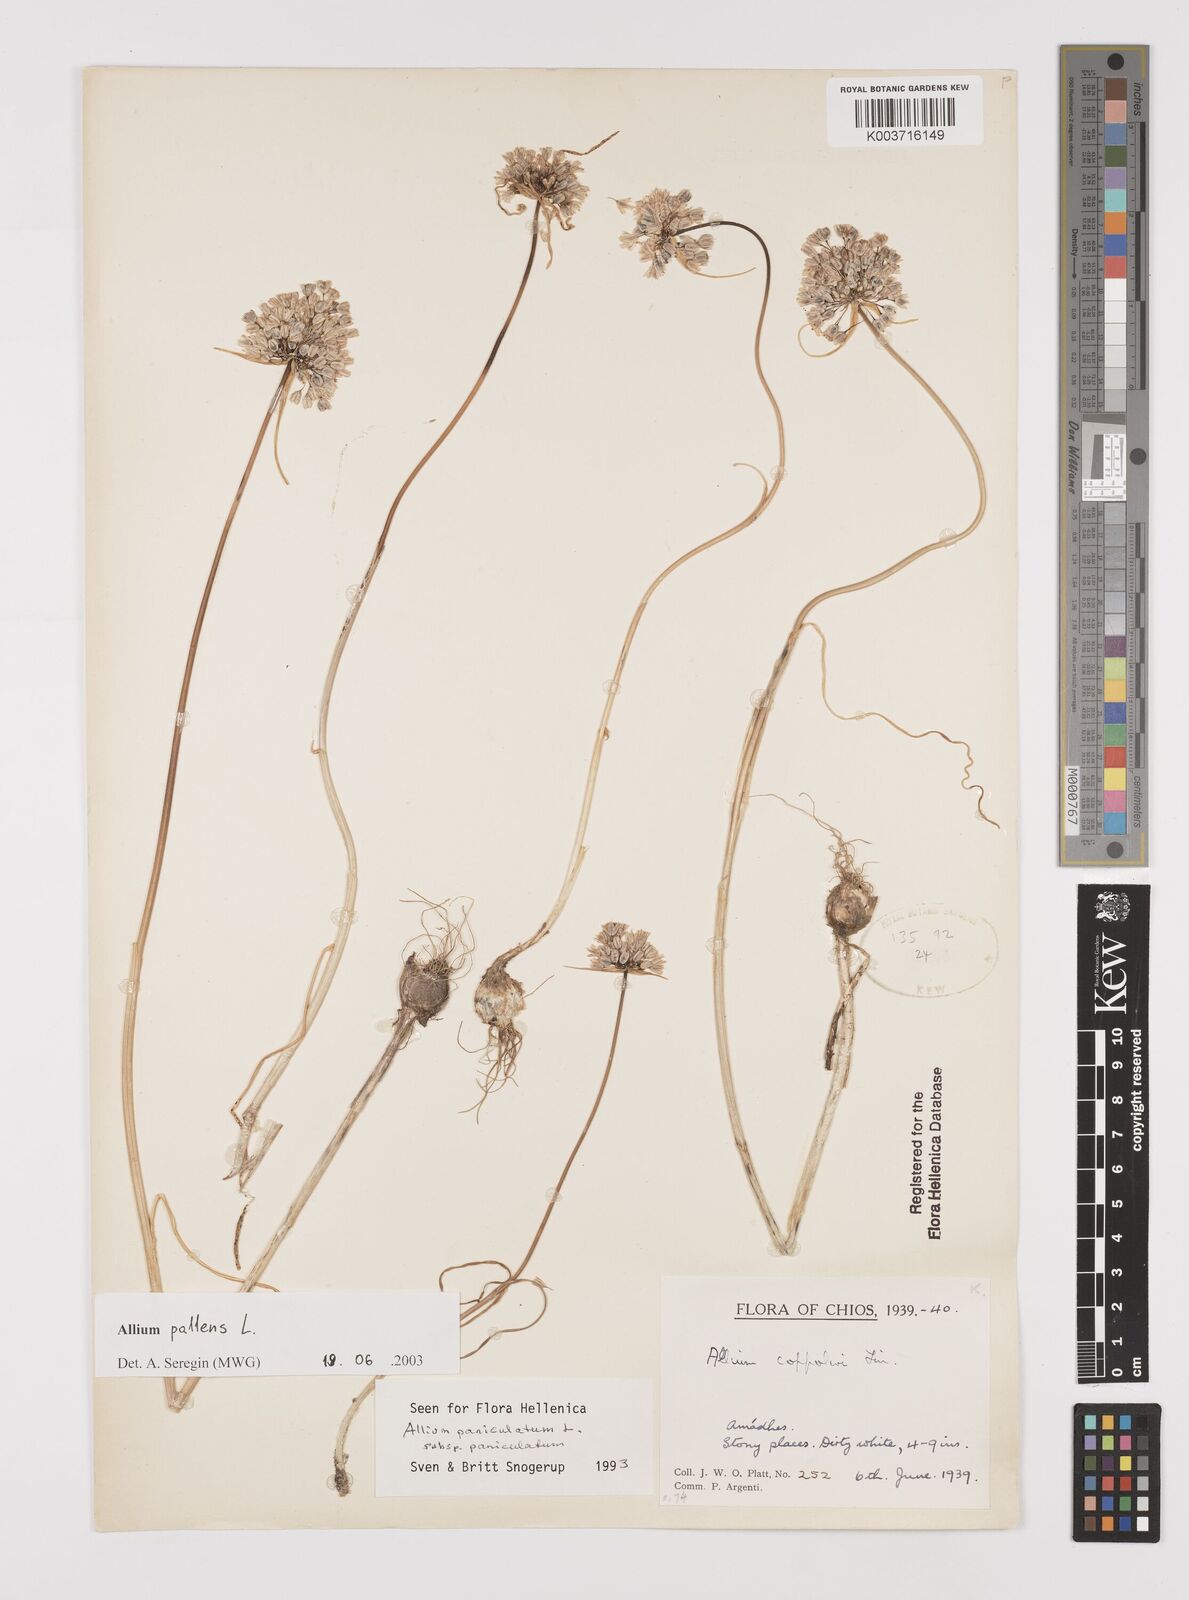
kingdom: Plantae
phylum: Tracheophyta
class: Liliopsida
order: Asparagales
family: Amaryllidaceae
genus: Allium
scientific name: Allium pallens
